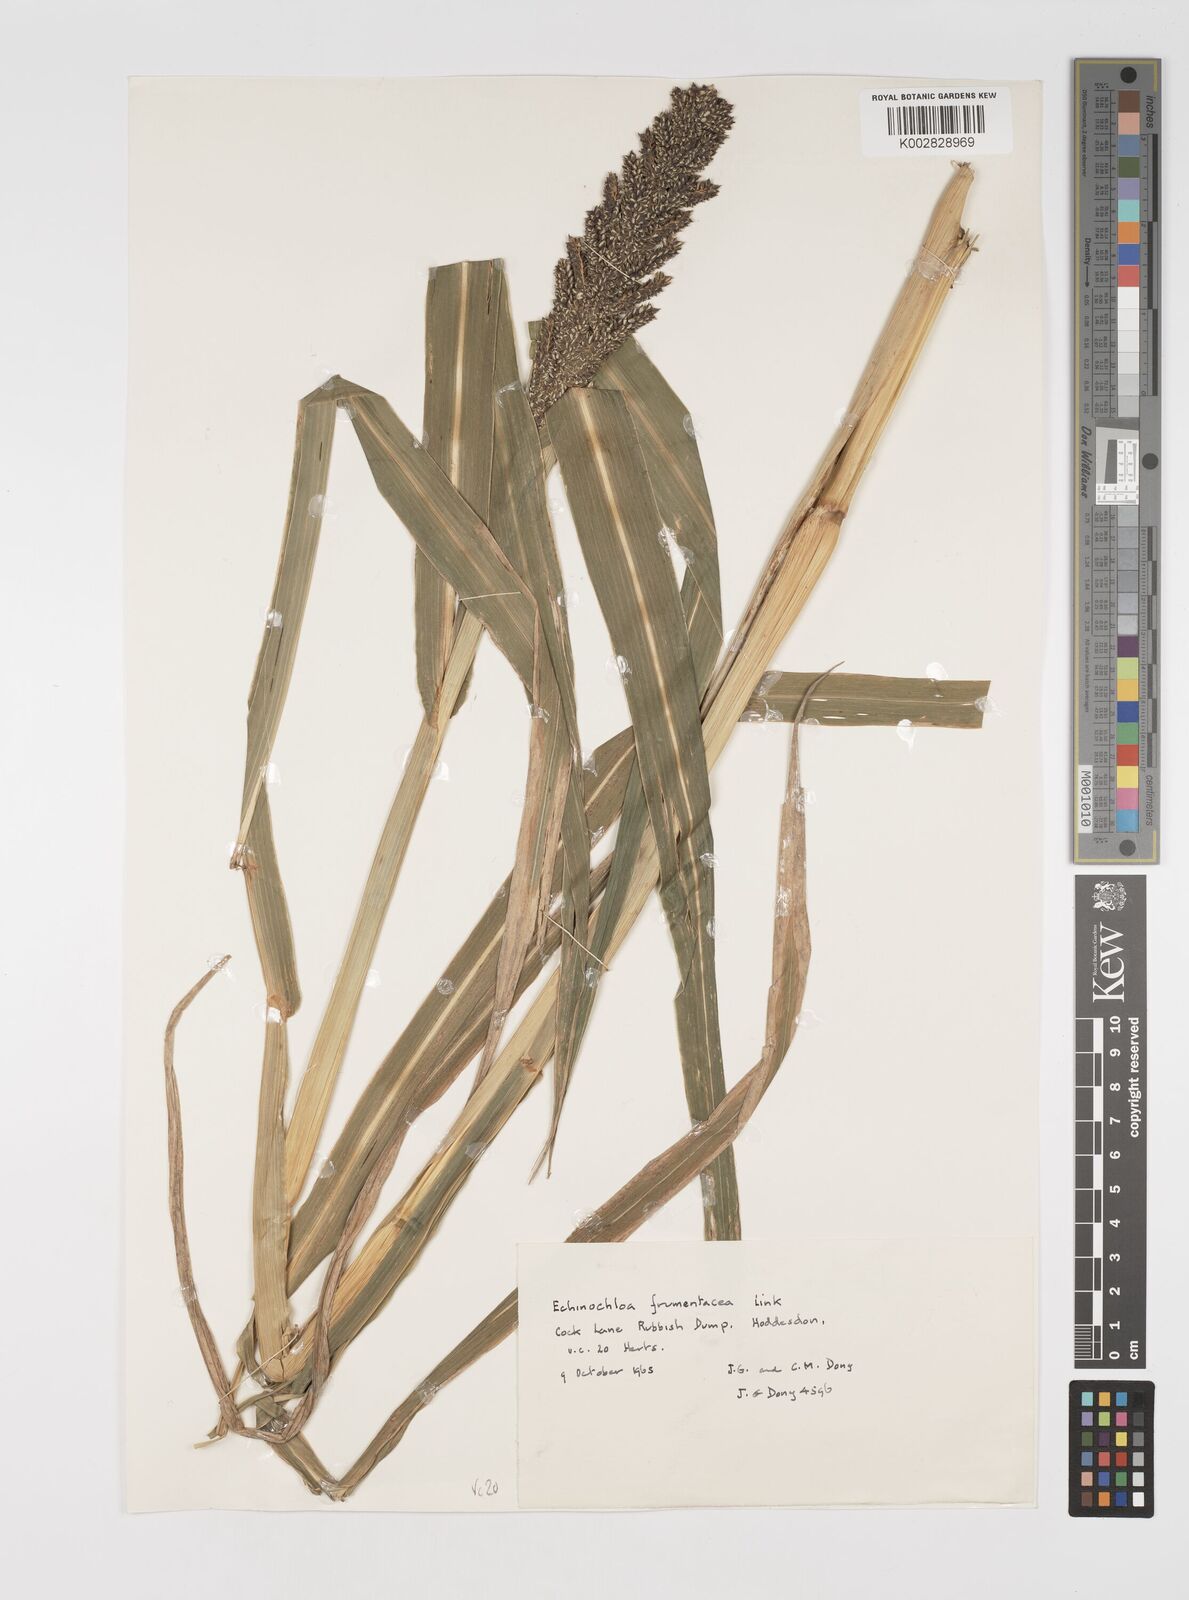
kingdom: Plantae
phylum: Tracheophyta
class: Liliopsida
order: Poales
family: Poaceae
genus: Echinochloa
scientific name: Echinochloa crus-galli
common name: Cockspur
